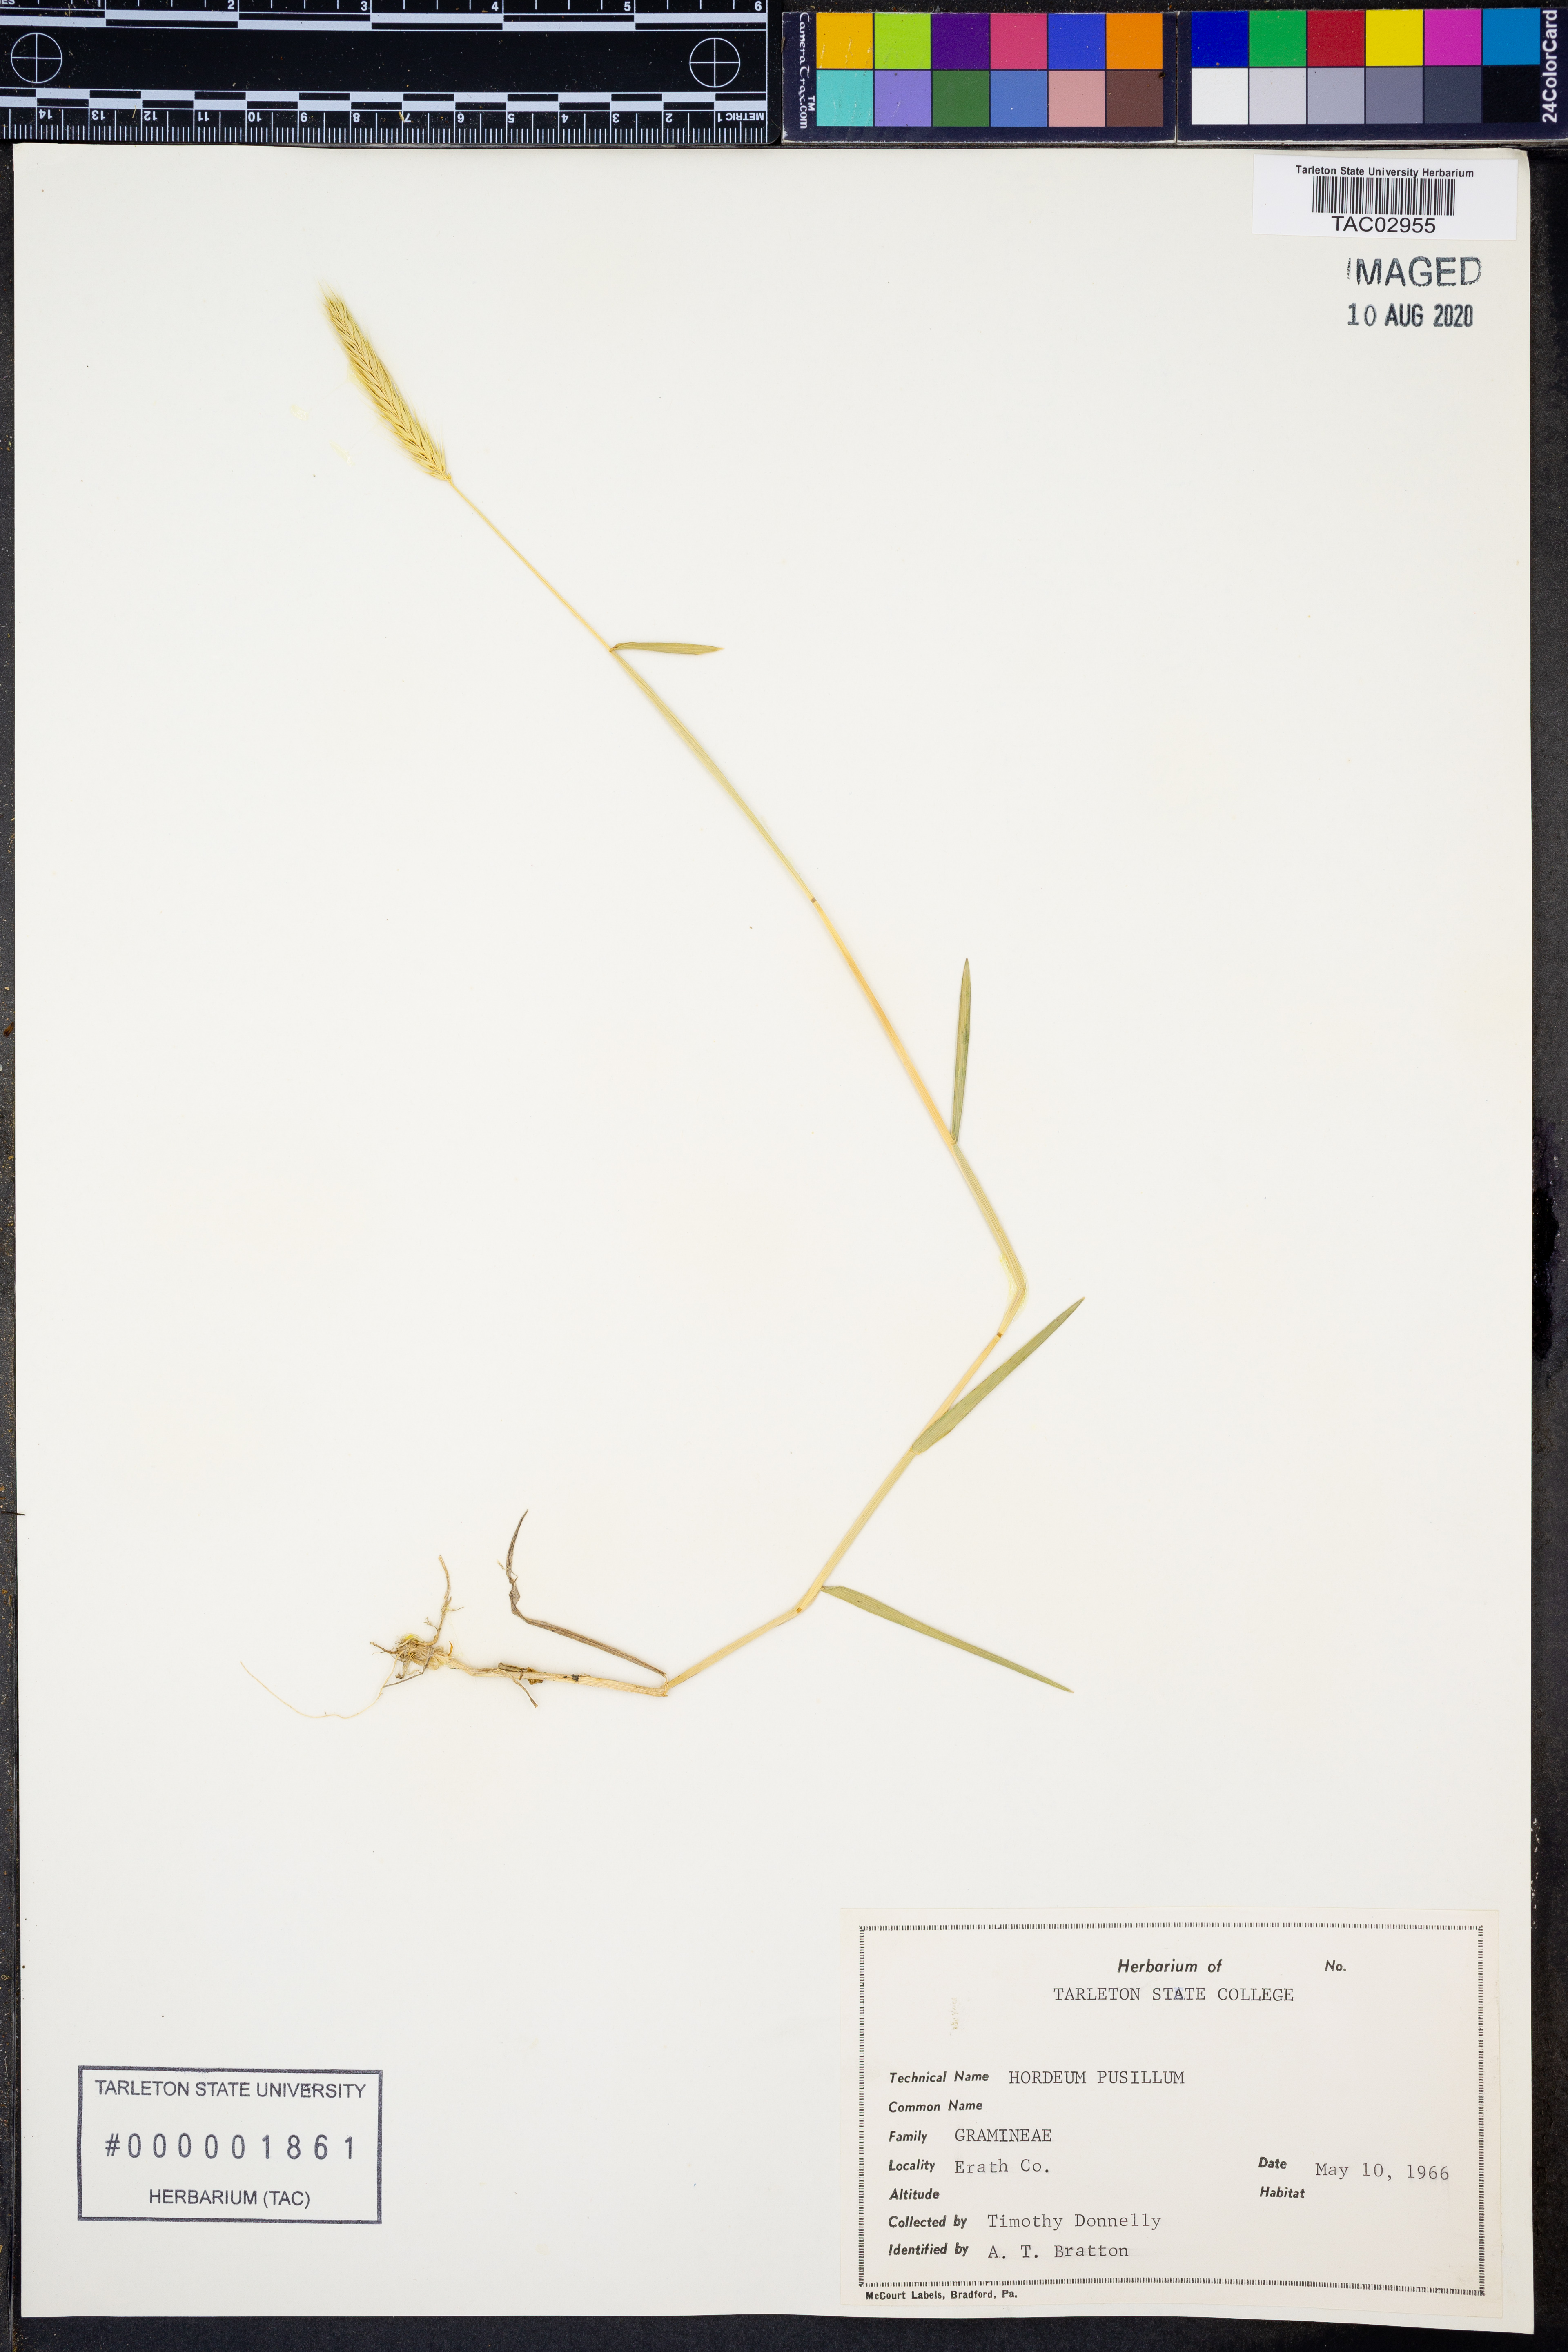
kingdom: Plantae
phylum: Tracheophyta
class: Liliopsida
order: Poales
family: Poaceae
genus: Hordeum
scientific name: Hordeum pusillum
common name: Little barley
